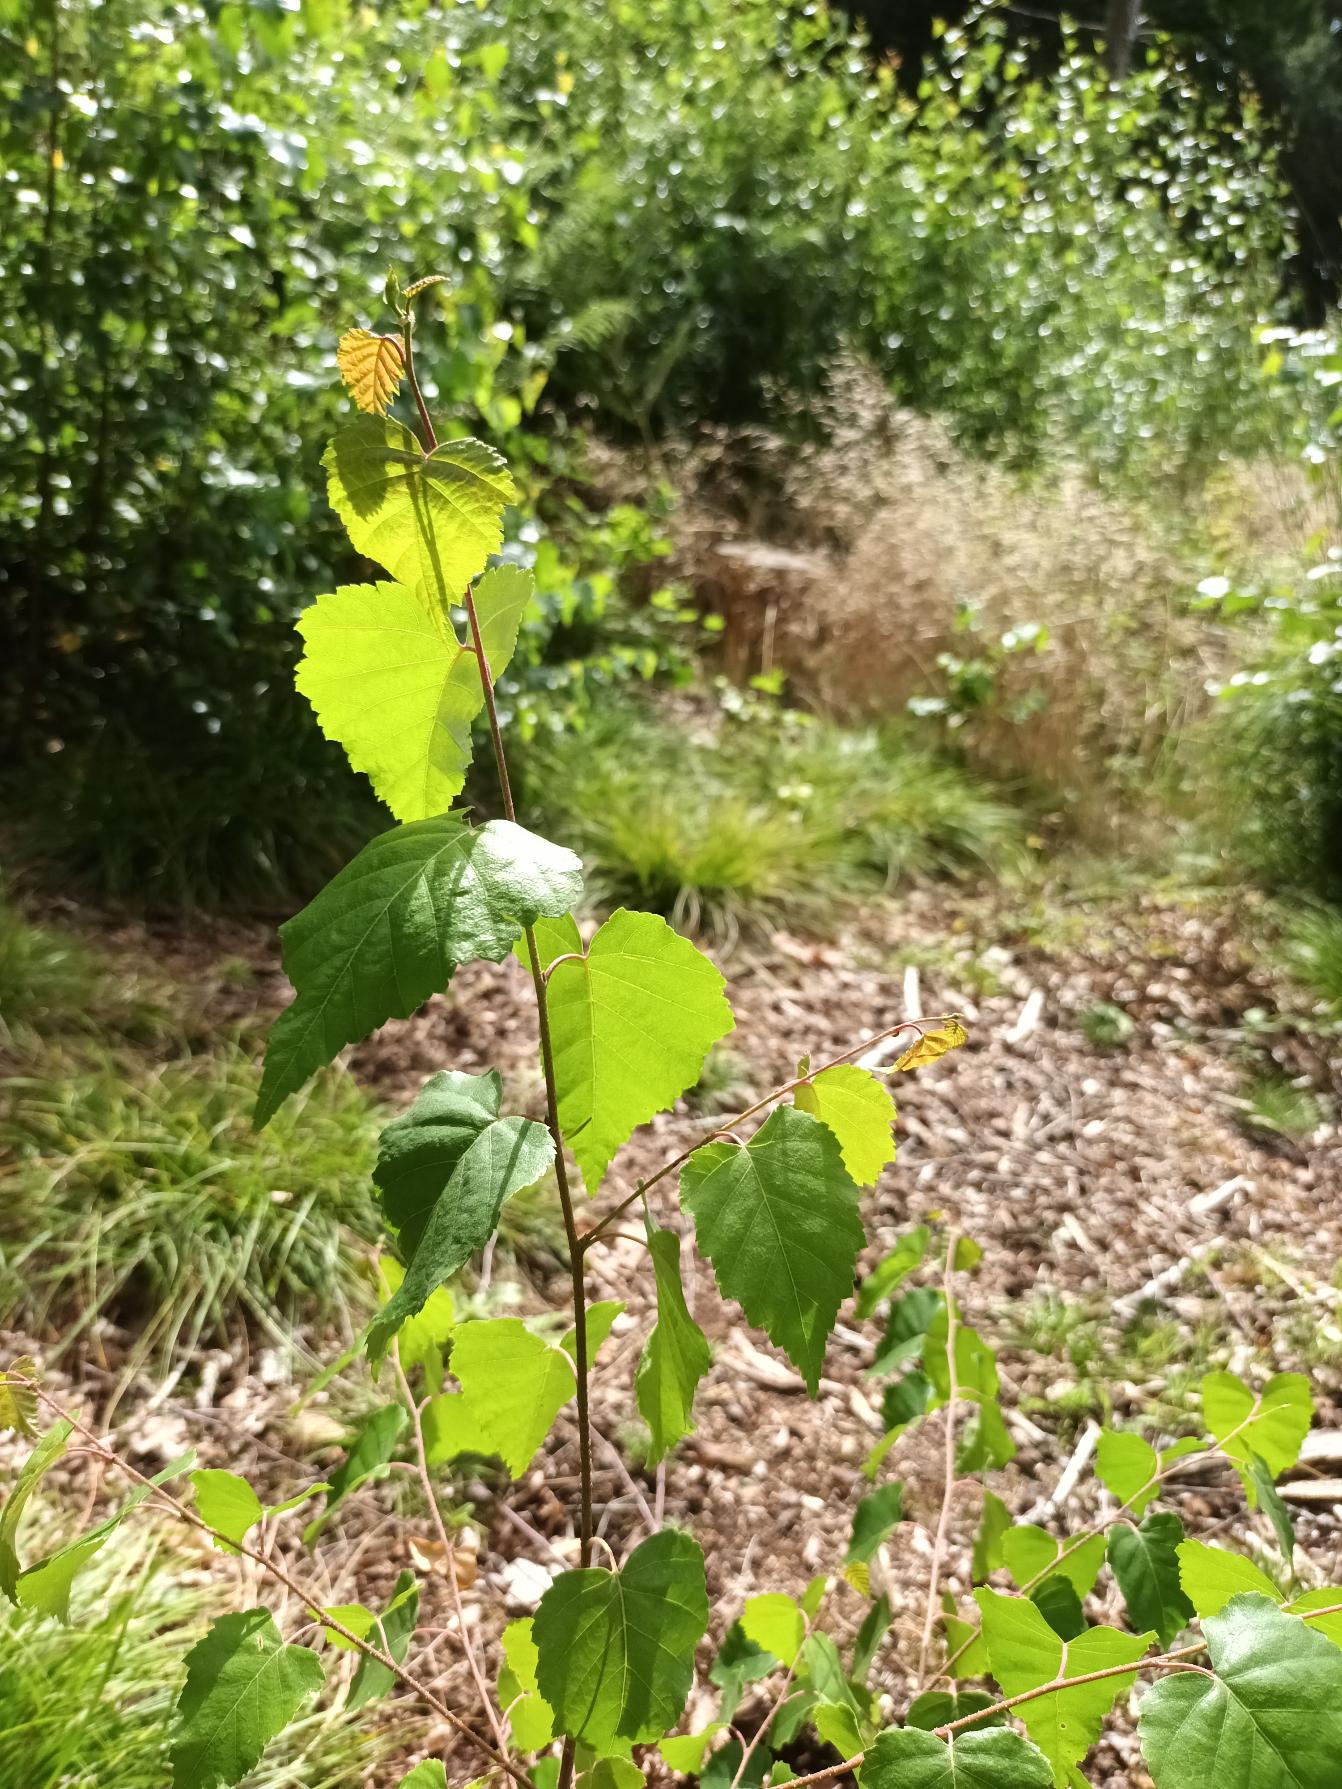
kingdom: Plantae
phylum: Tracheophyta
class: Magnoliopsida
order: Fagales
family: Betulaceae
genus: Betula
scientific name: Betula pendula
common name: Vorte-birk
